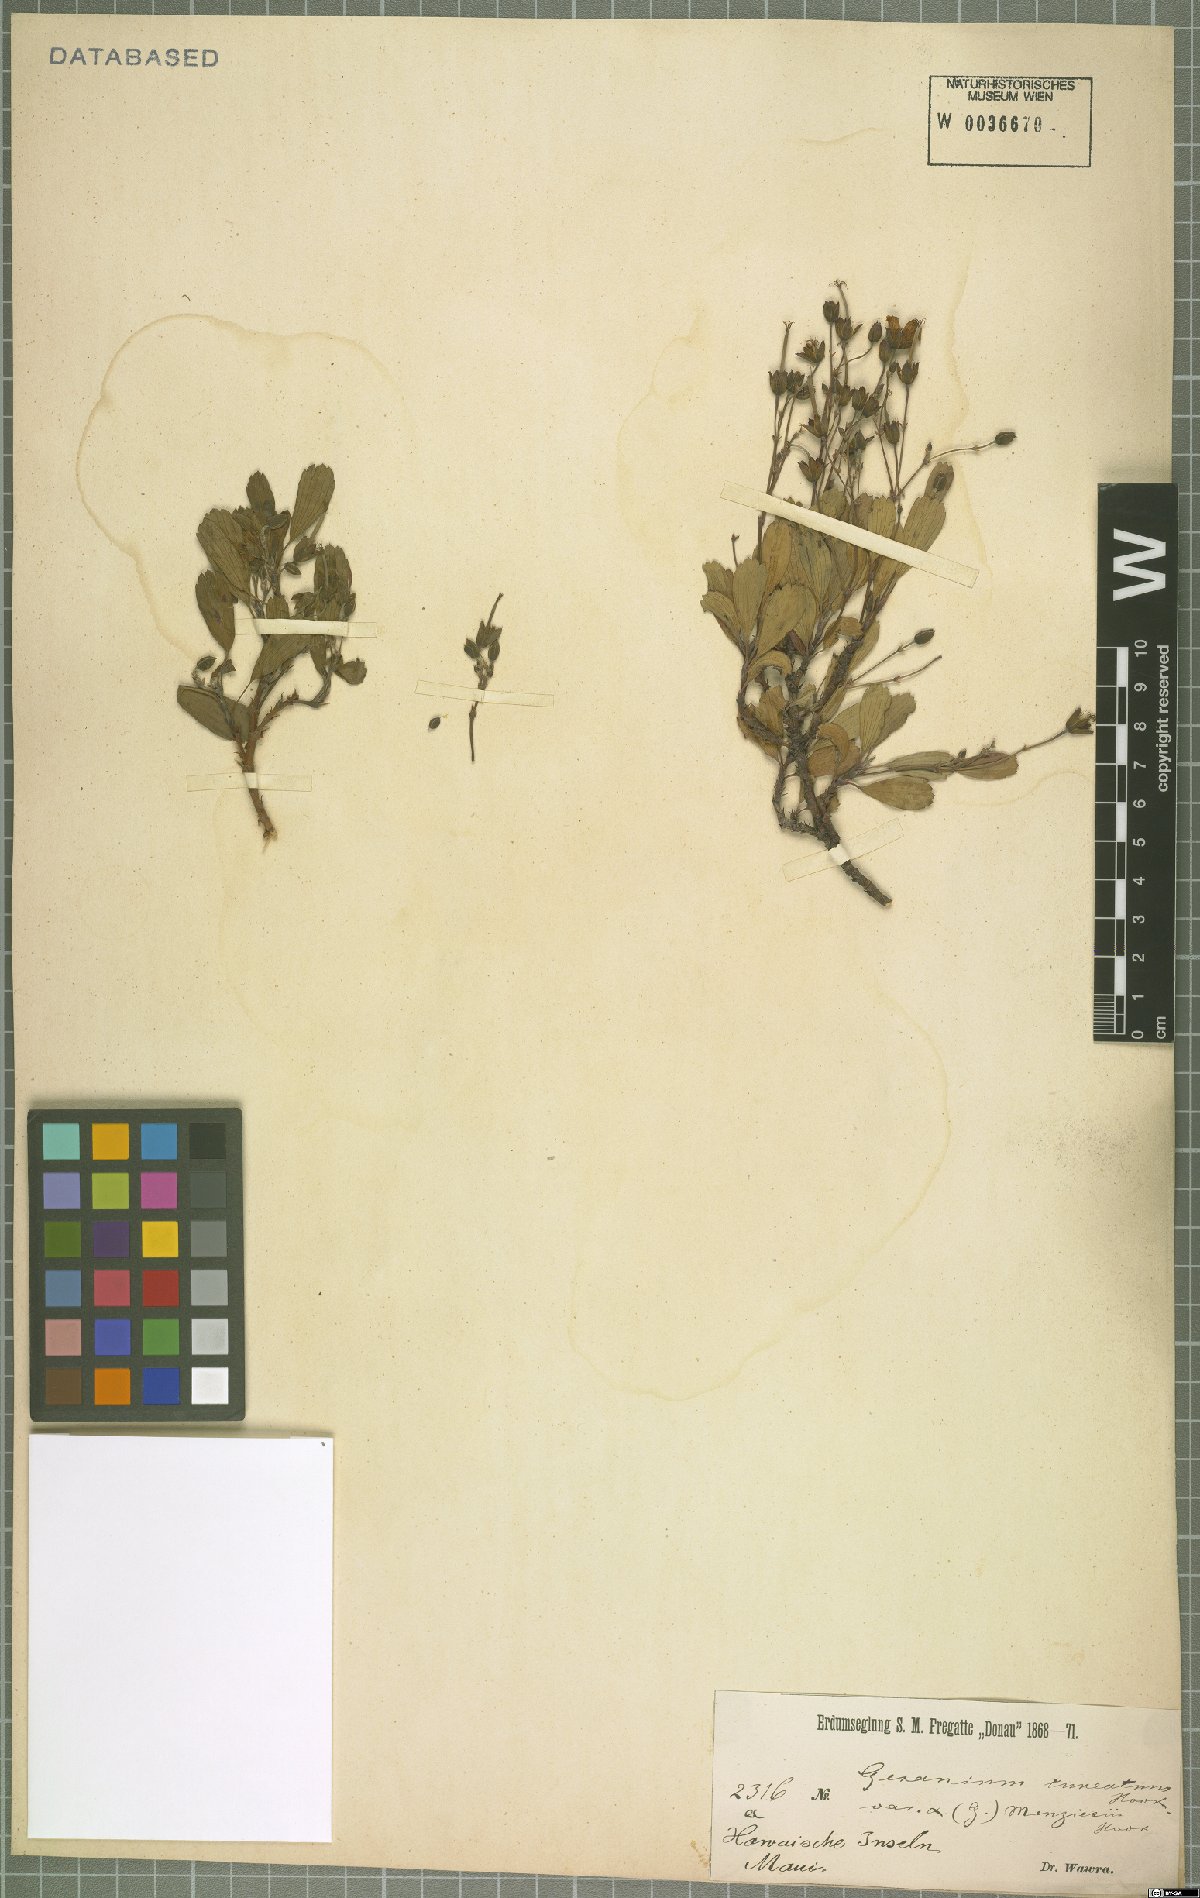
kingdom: Plantae
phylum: Tracheophyta
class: Magnoliopsida
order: Geraniales
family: Geraniaceae
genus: Geranium
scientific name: Geranium cuneatum
